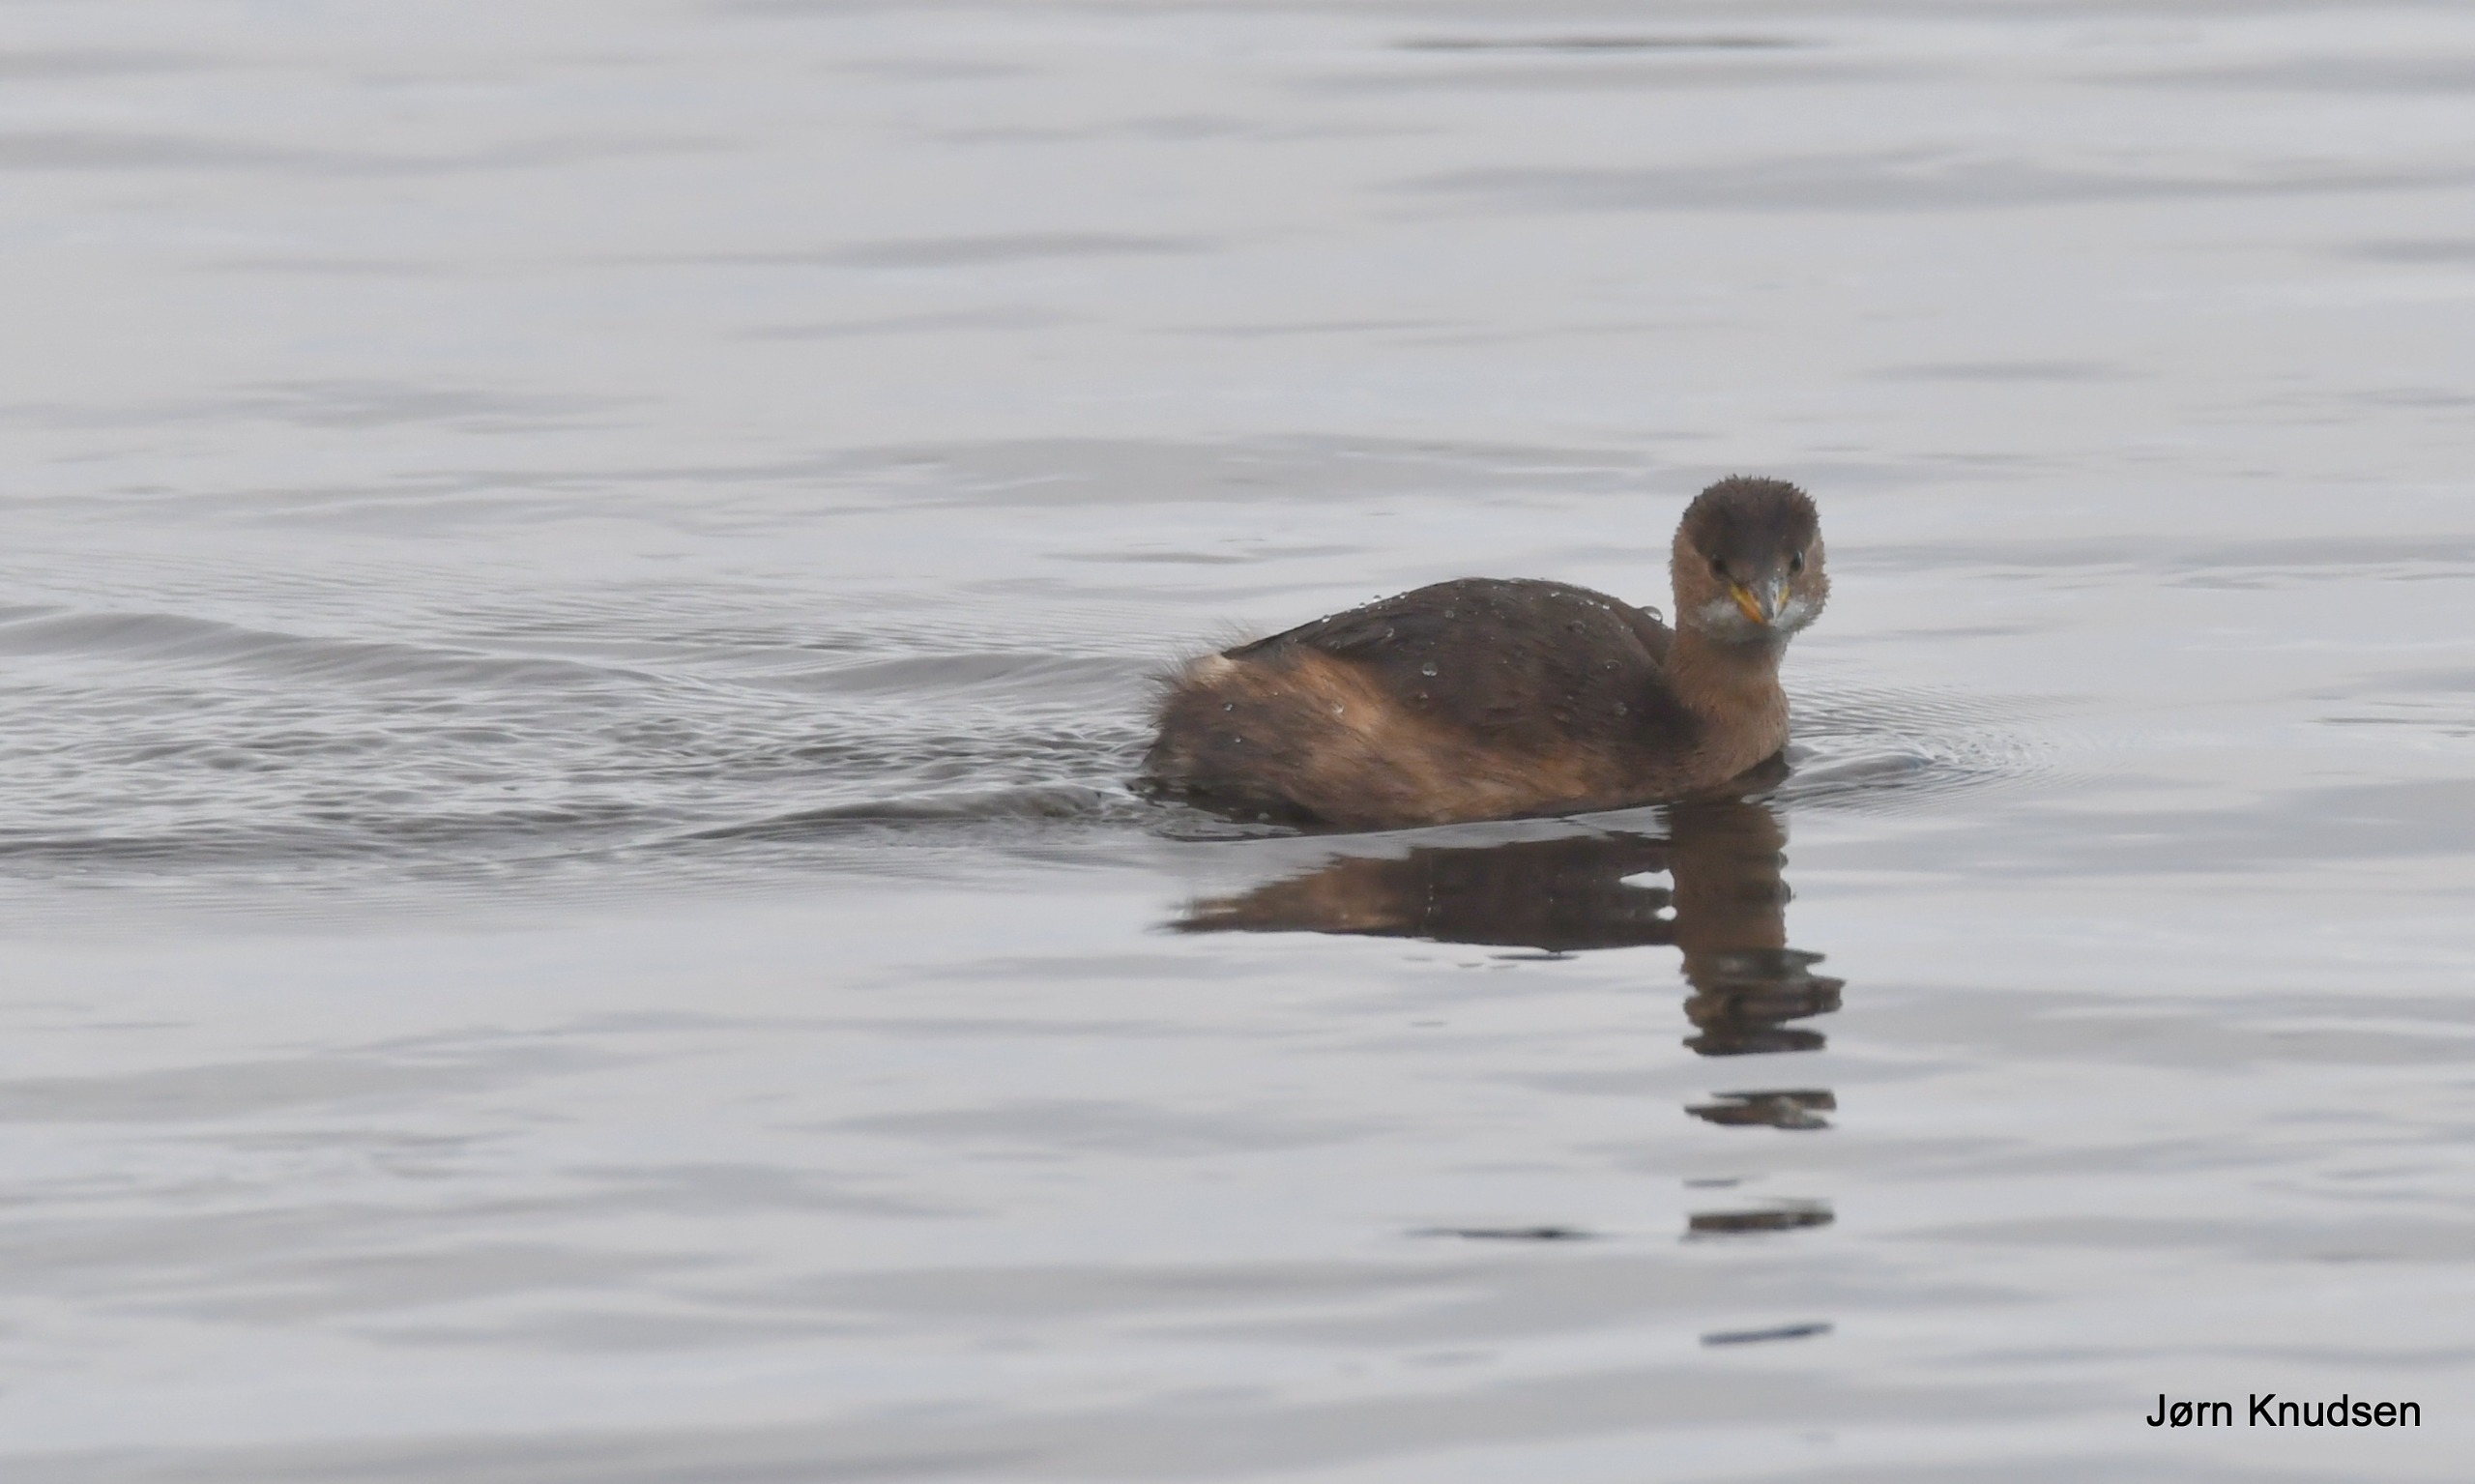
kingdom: Animalia
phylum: Chordata
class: Aves
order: Podicipediformes
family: Podicipedidae
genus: Tachybaptus
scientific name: Tachybaptus ruficollis
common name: Lille lappedykker
